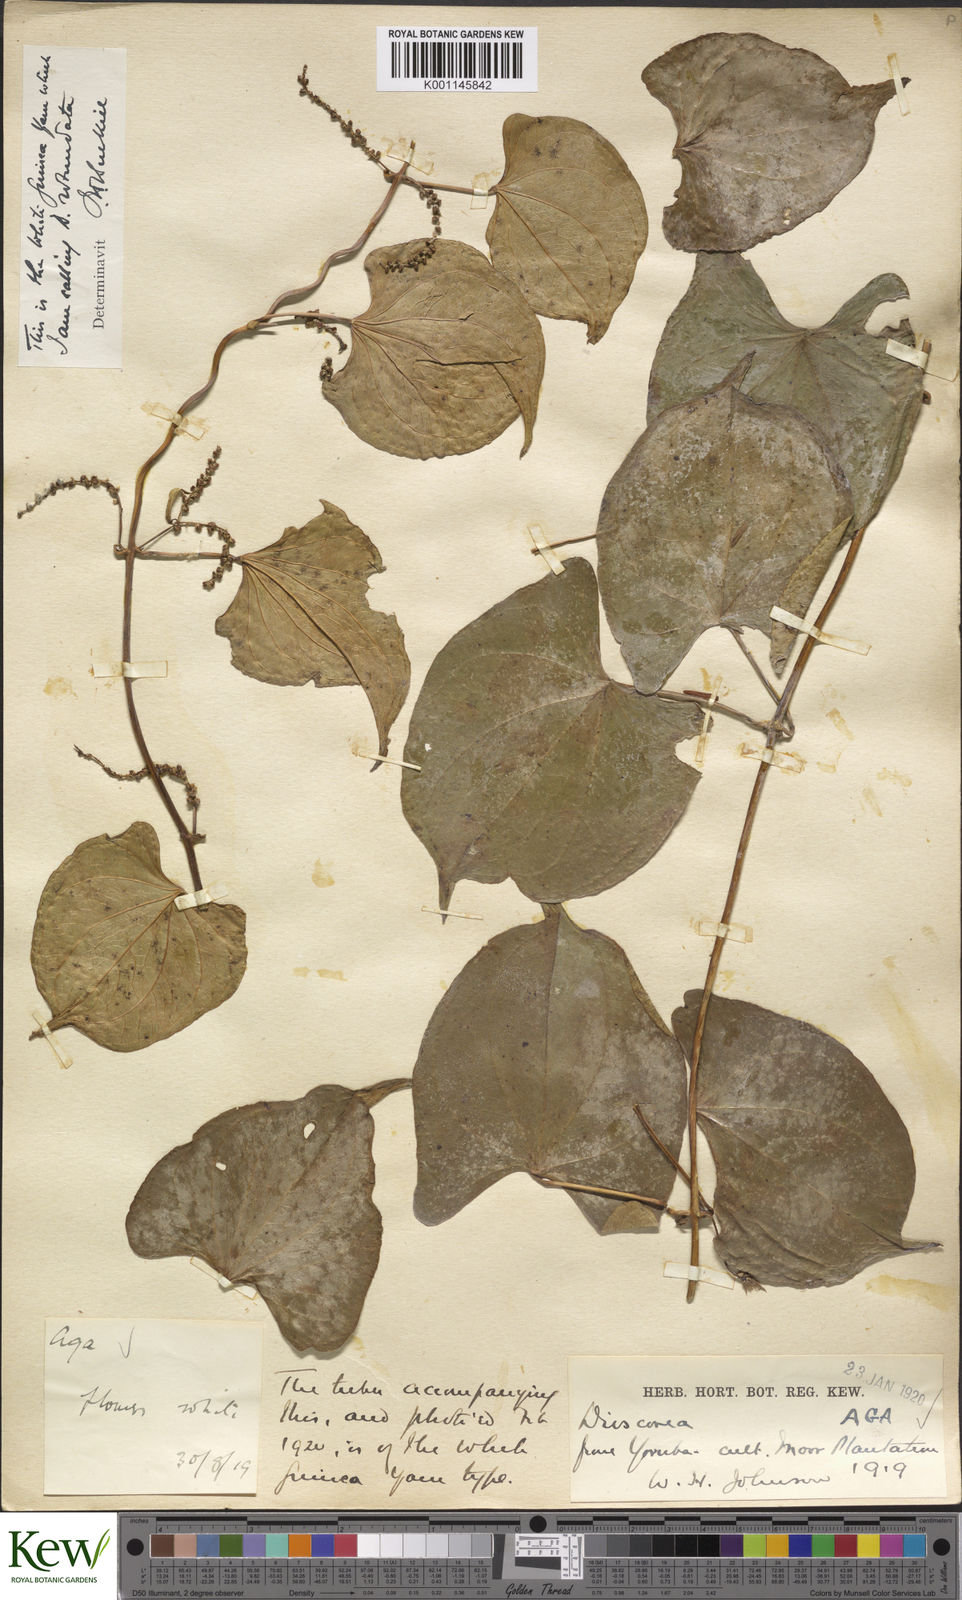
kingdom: Plantae
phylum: Tracheophyta
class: Liliopsida
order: Dioscoreales
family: Dioscoreaceae
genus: Dioscorea
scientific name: Dioscorea cayenensis
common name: Attoto yam
